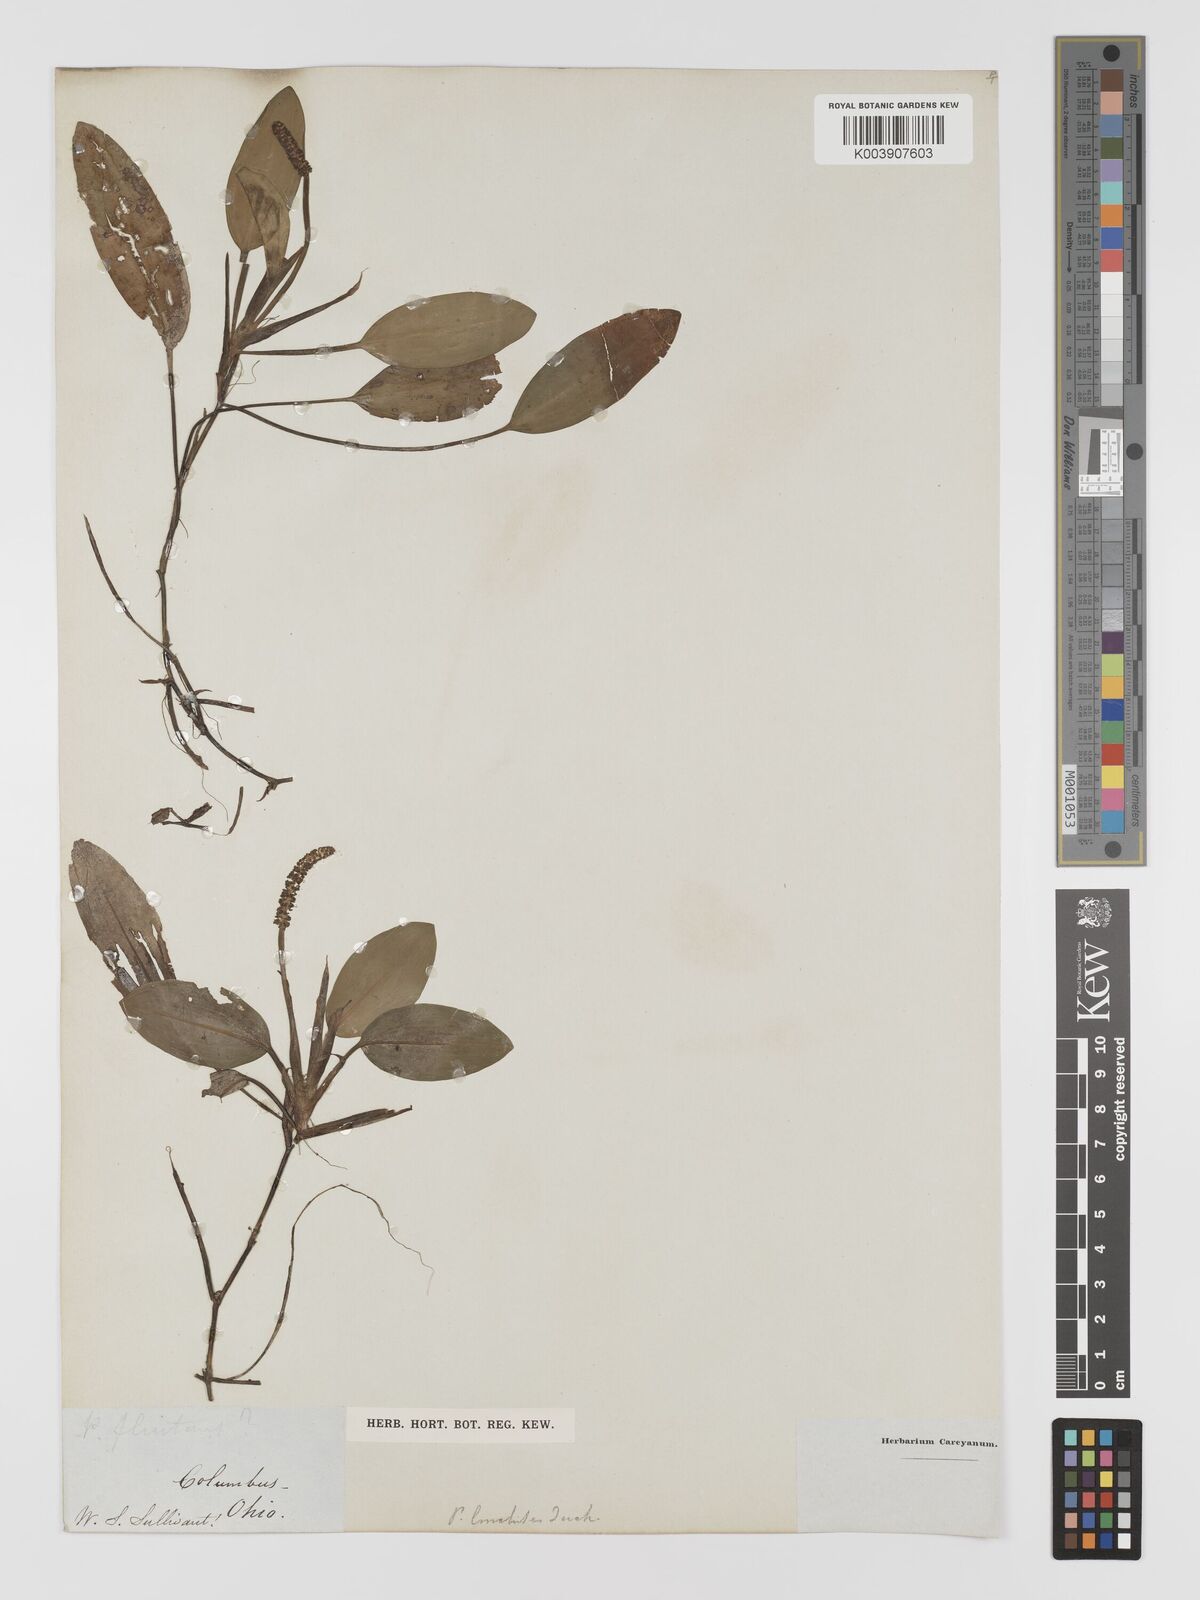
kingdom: Plantae
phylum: Tracheophyta
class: Liliopsida
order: Alismatales
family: Potamogetonaceae
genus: Potamogeton
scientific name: Potamogeton nodosus
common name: Loddon pondweed
